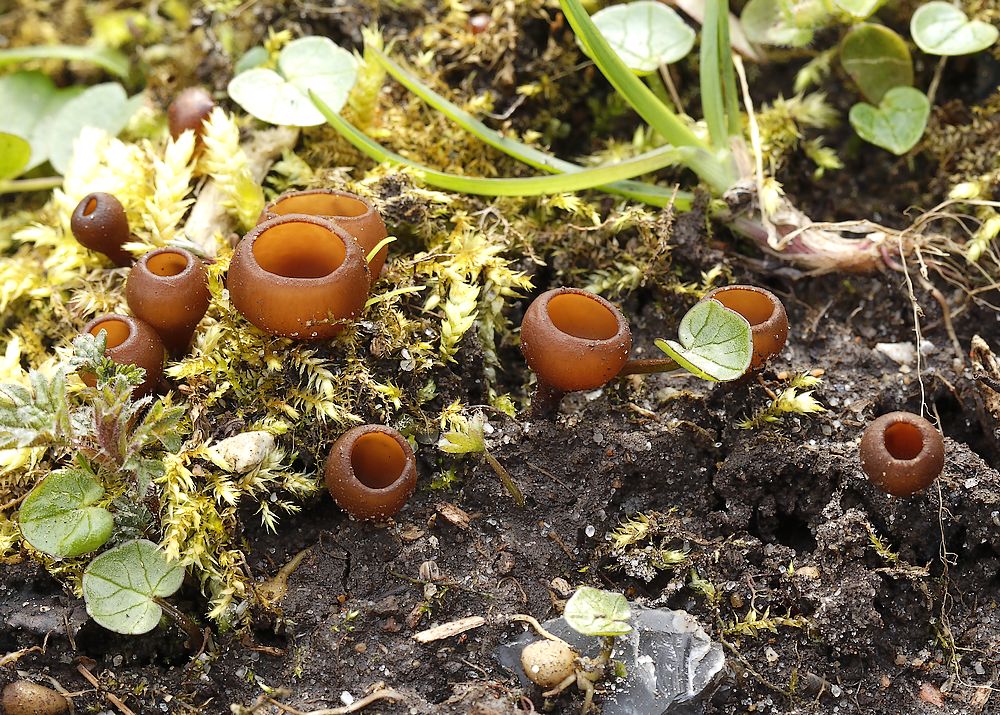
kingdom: Fungi
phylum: Ascomycota
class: Leotiomycetes
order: Helotiales
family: Sclerotiniaceae
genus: Dumontinia
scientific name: Dumontinia tuberosa
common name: anemone-knoldskive
